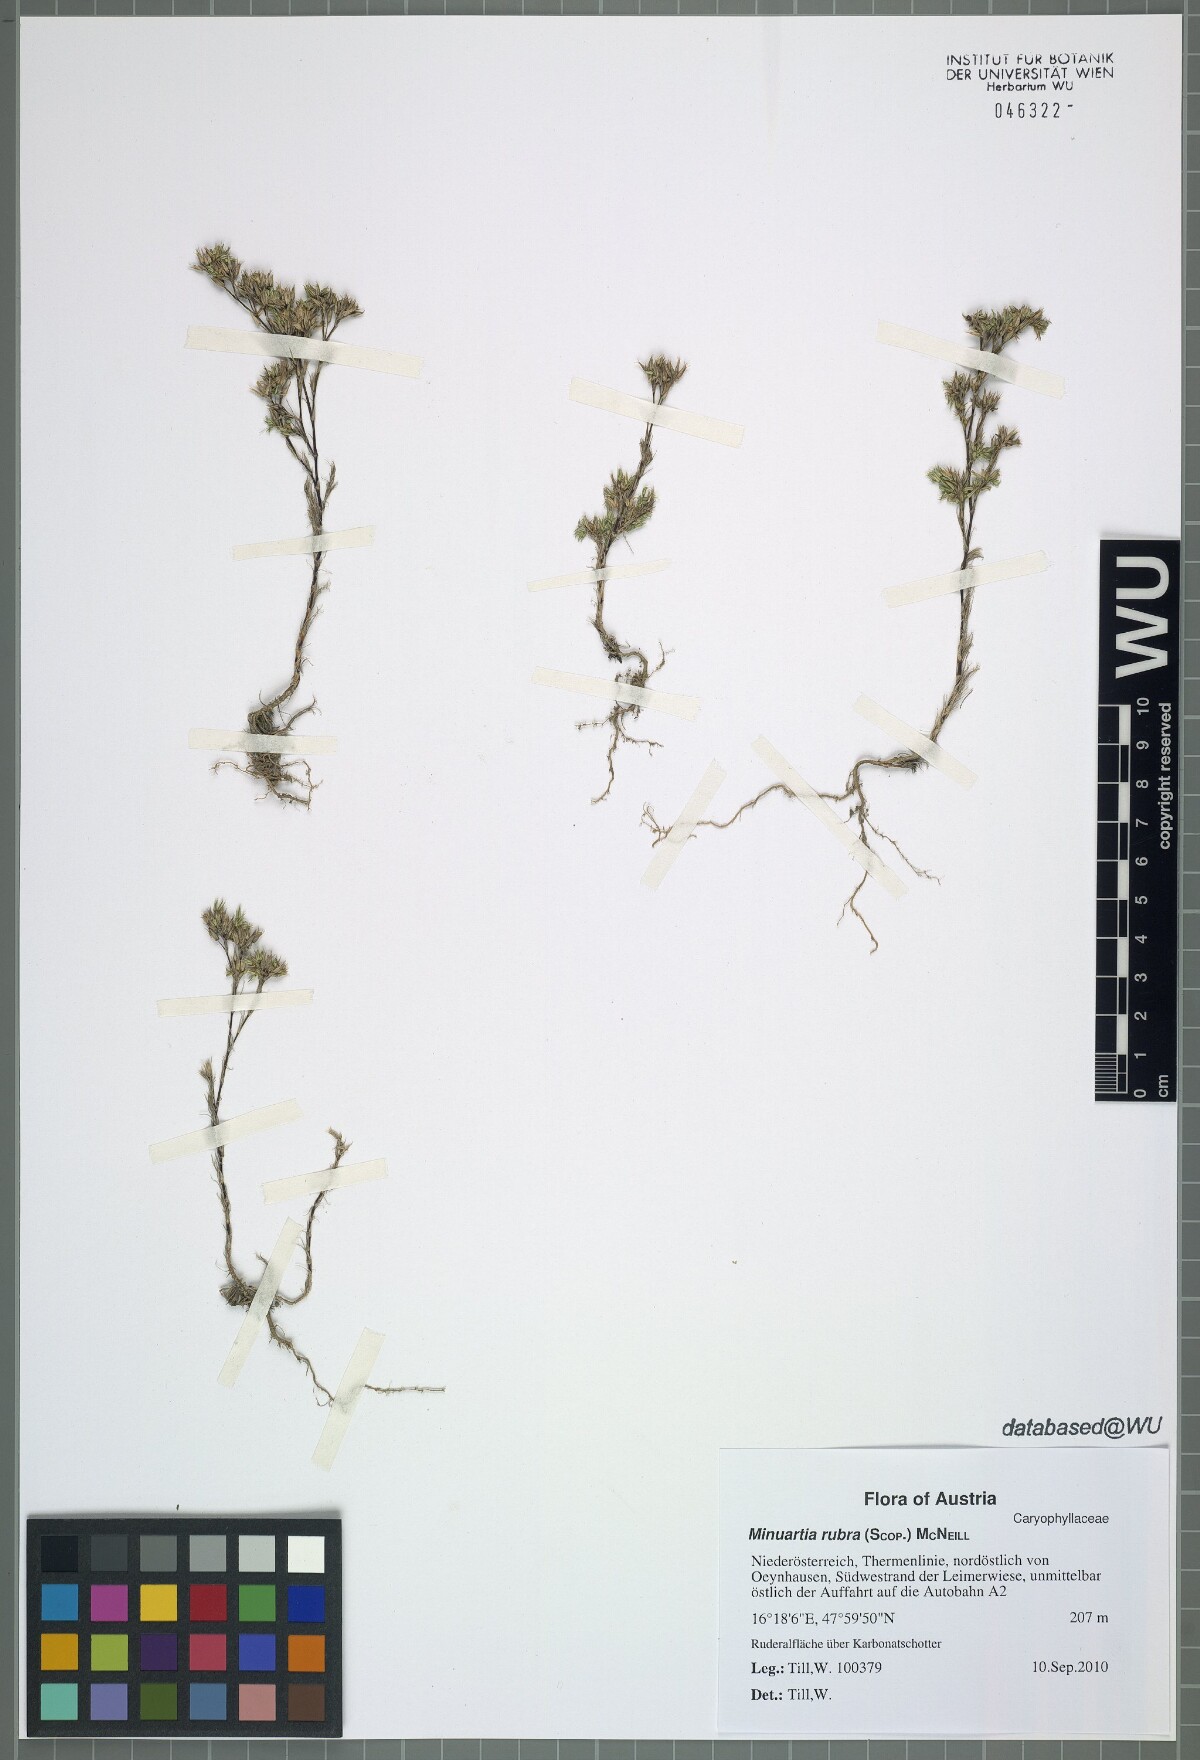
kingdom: Plantae
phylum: Tracheophyta
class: Magnoliopsida
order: Caryophyllales
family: Caryophyllaceae
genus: Minuartia
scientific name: Minuartia mucronata
